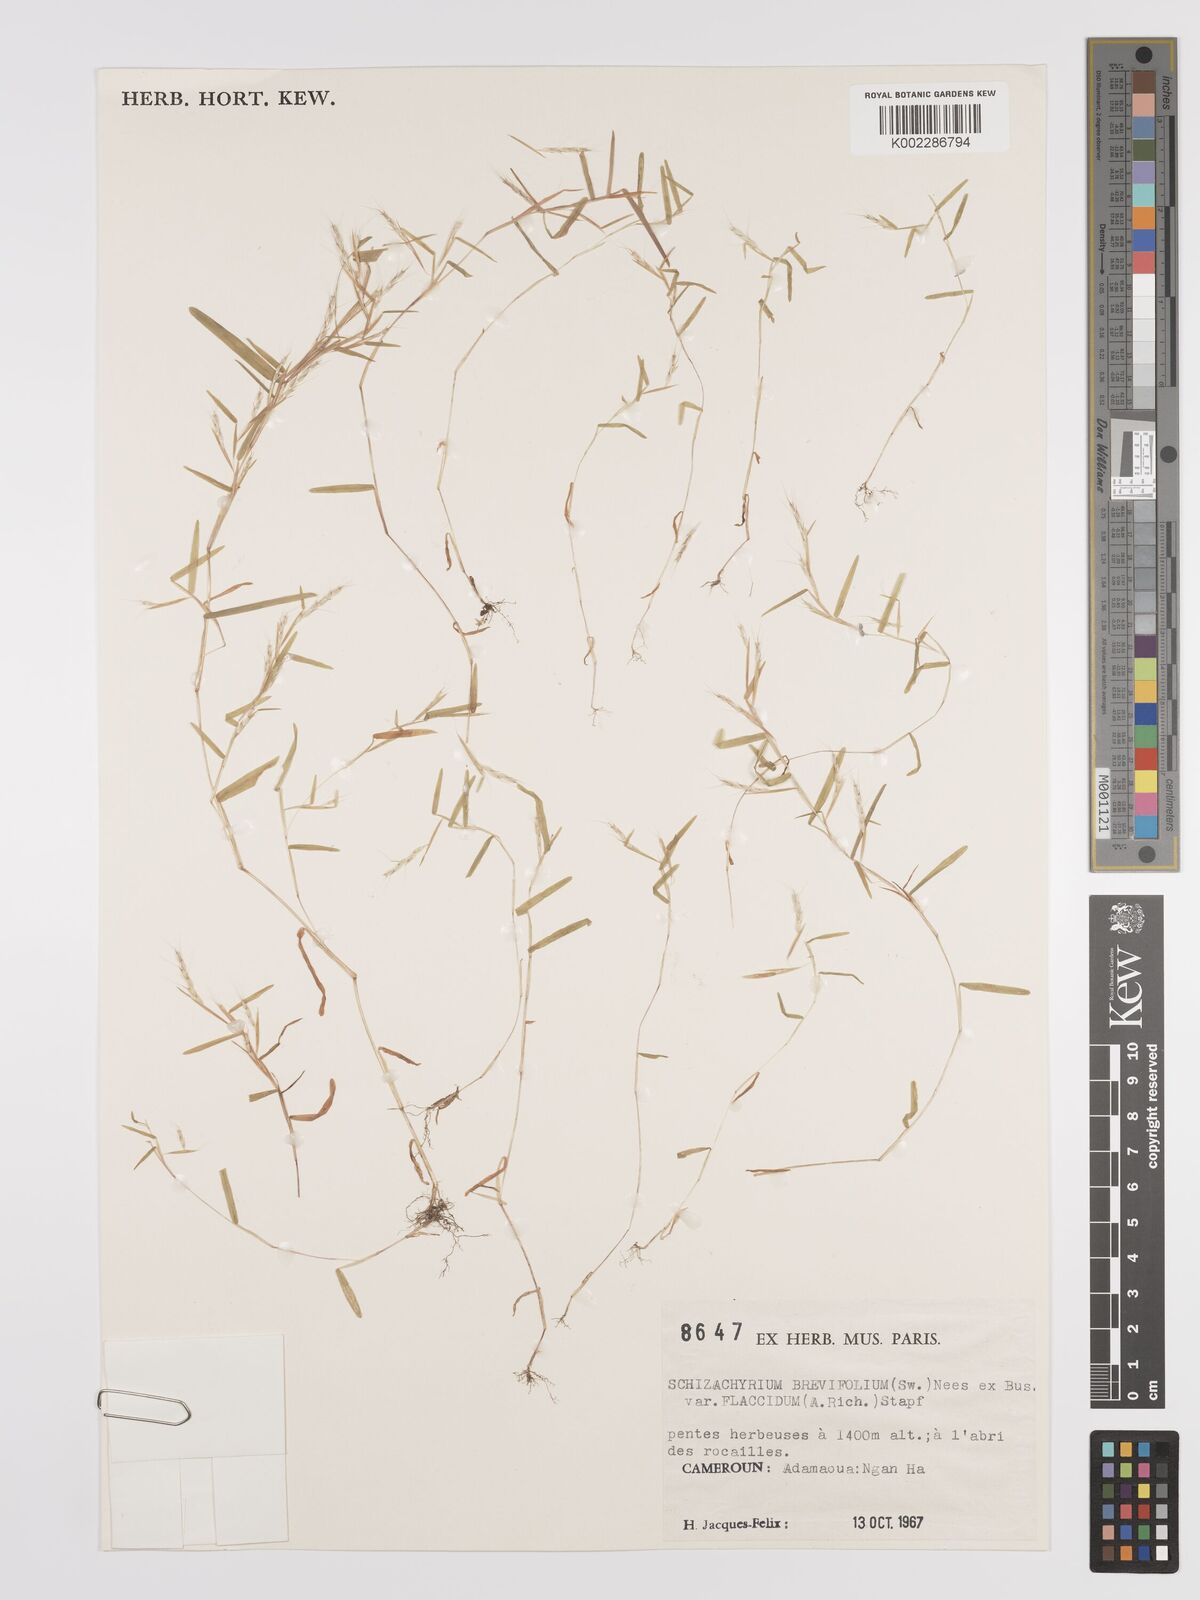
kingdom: Plantae
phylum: Tracheophyta
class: Liliopsida
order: Poales
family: Poaceae
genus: Schizachyrium
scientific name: Schizachyrium brevifolium
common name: Serillo dulce
